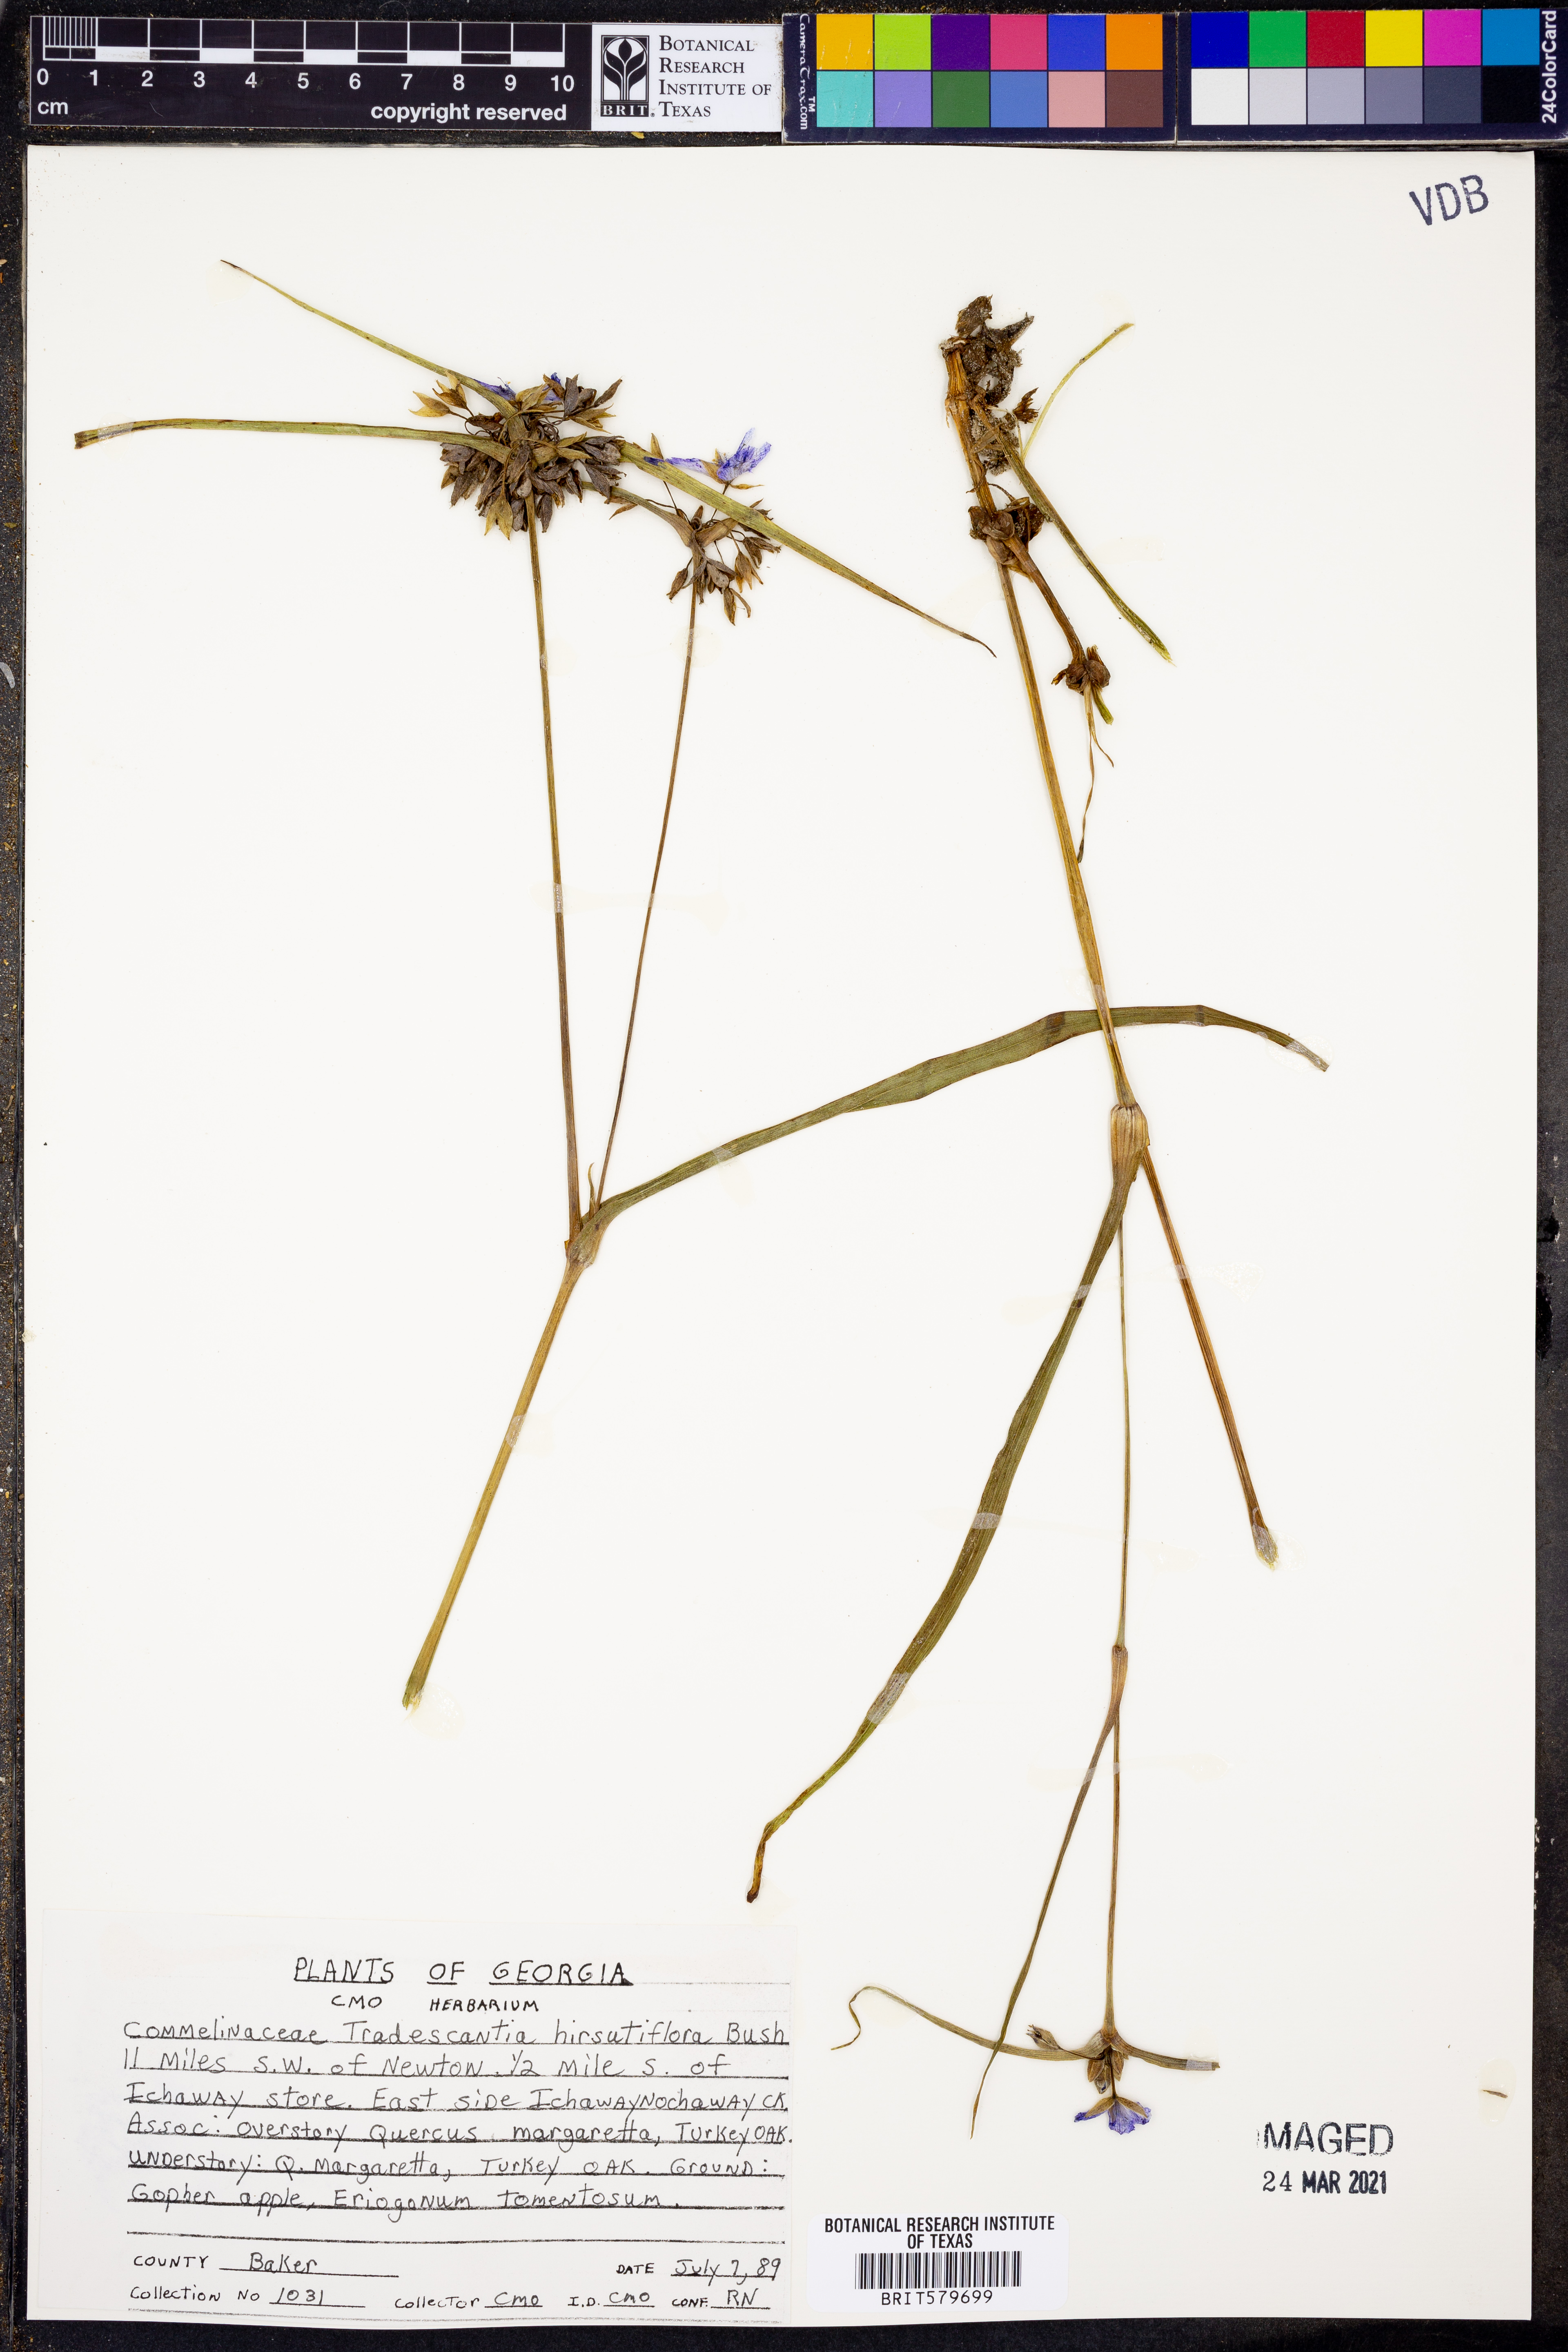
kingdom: Plantae
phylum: Tracheophyta
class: Liliopsida
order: Commelinales
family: Commelinaceae
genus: Tradescantia
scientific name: Tradescantia hirsutiflora
